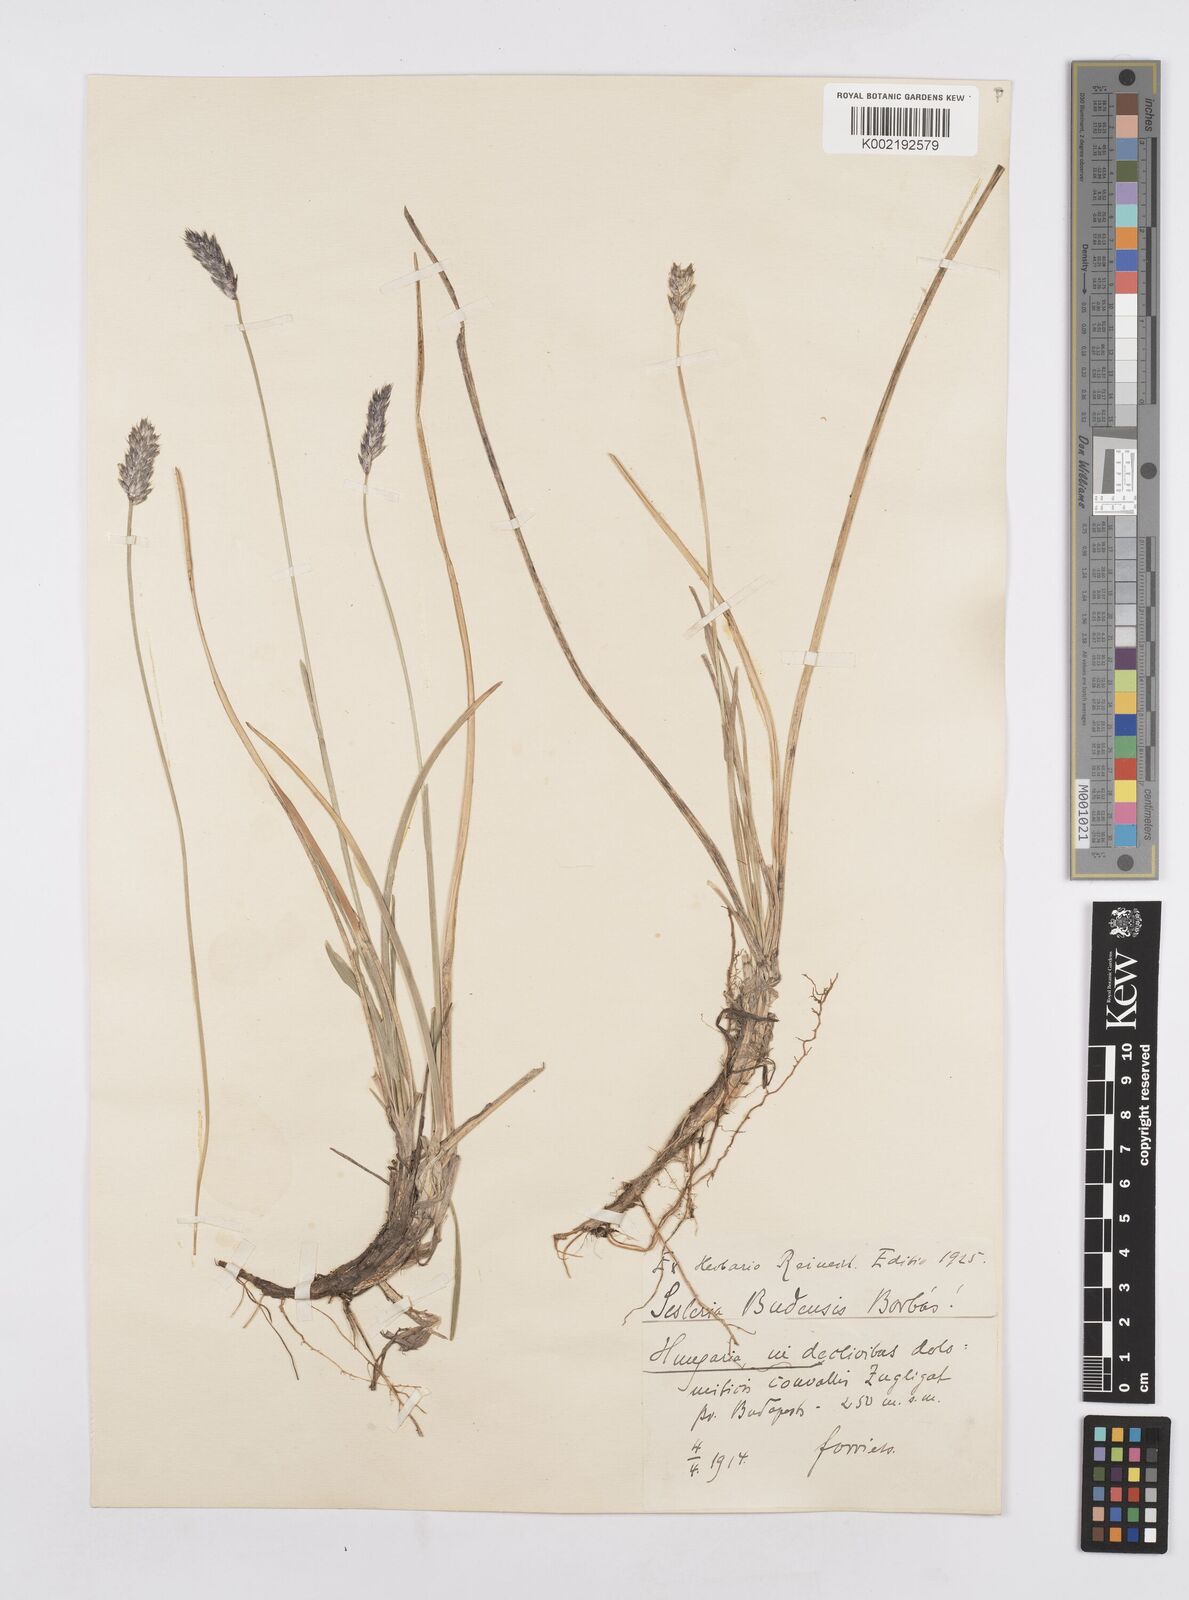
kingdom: Plantae
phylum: Tracheophyta
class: Liliopsida
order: Poales
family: Poaceae
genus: Sesleria
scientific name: Sesleria sadleriana
